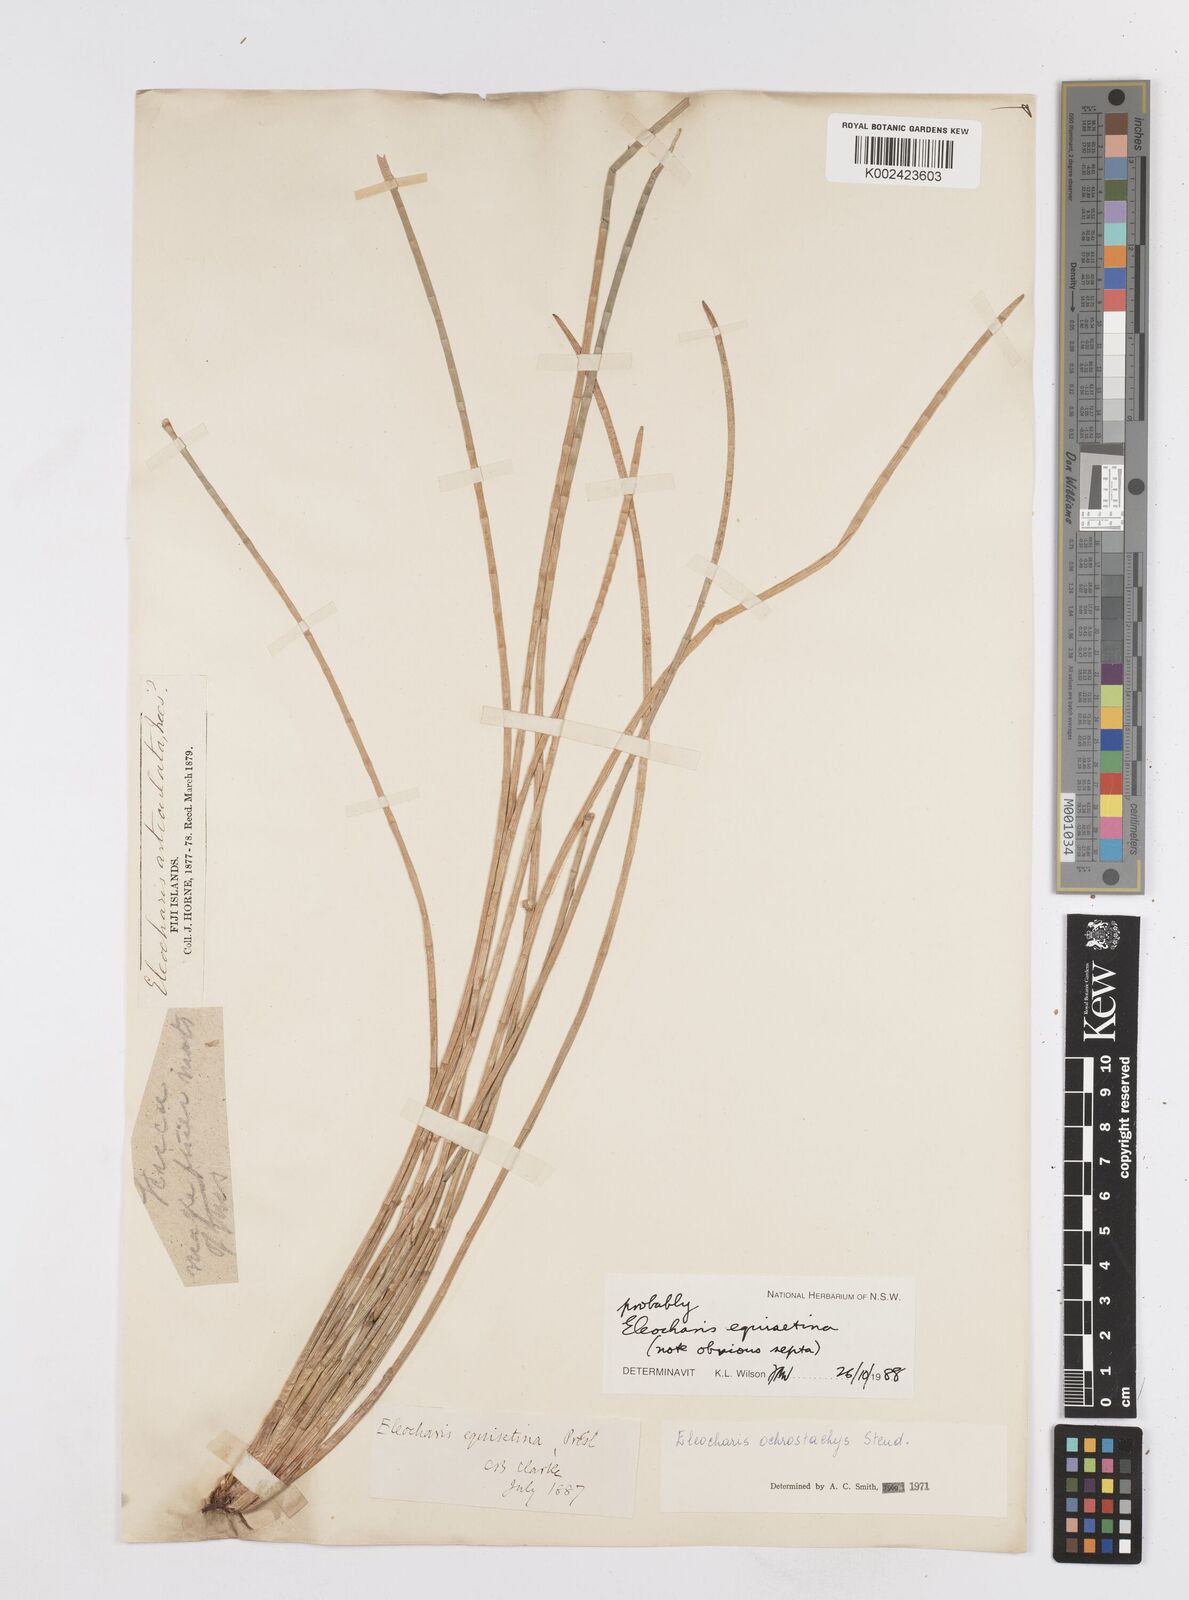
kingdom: Plantae
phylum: Tracheophyta
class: Liliopsida
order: Poales
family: Cyperaceae
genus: Eleocharis
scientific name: Eleocharis dulcis
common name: Chinese water chestnut
